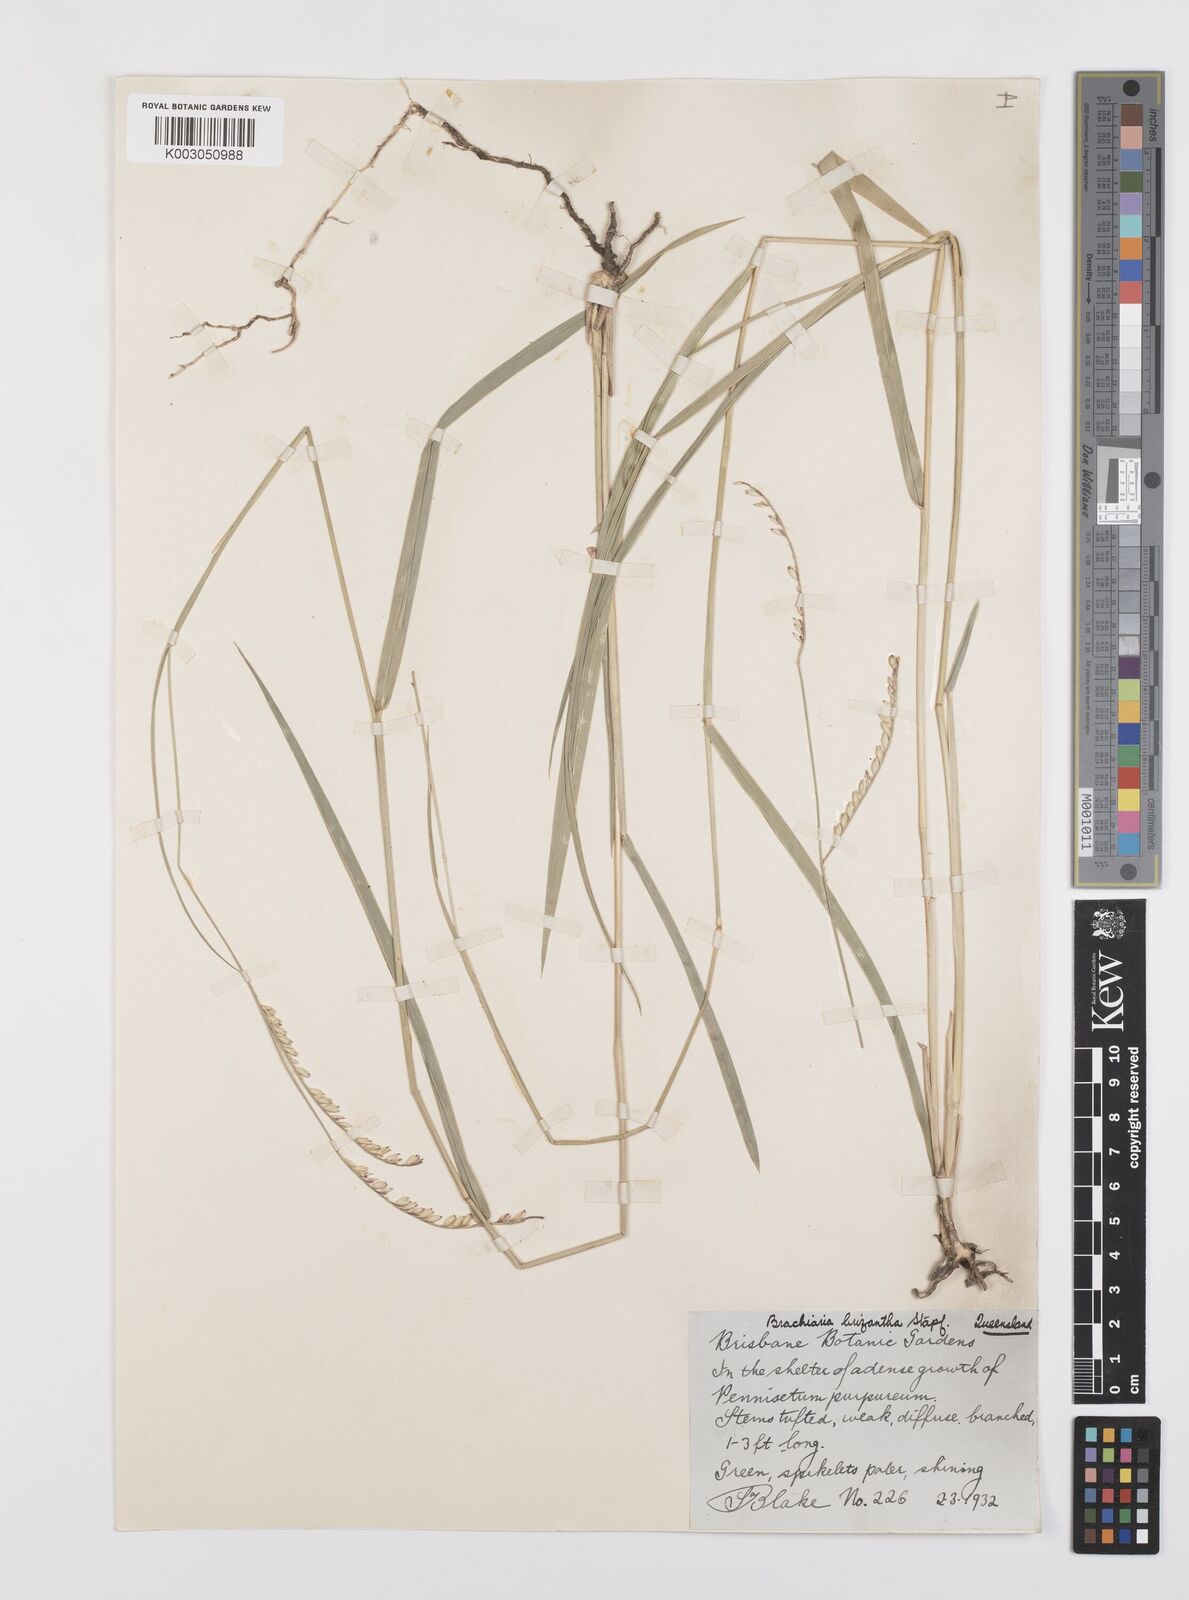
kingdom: Plantae
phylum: Tracheophyta
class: Liliopsida
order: Poales
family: Poaceae
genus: Urochloa
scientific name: Urochloa brizantha
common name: Palisade signalgrass
